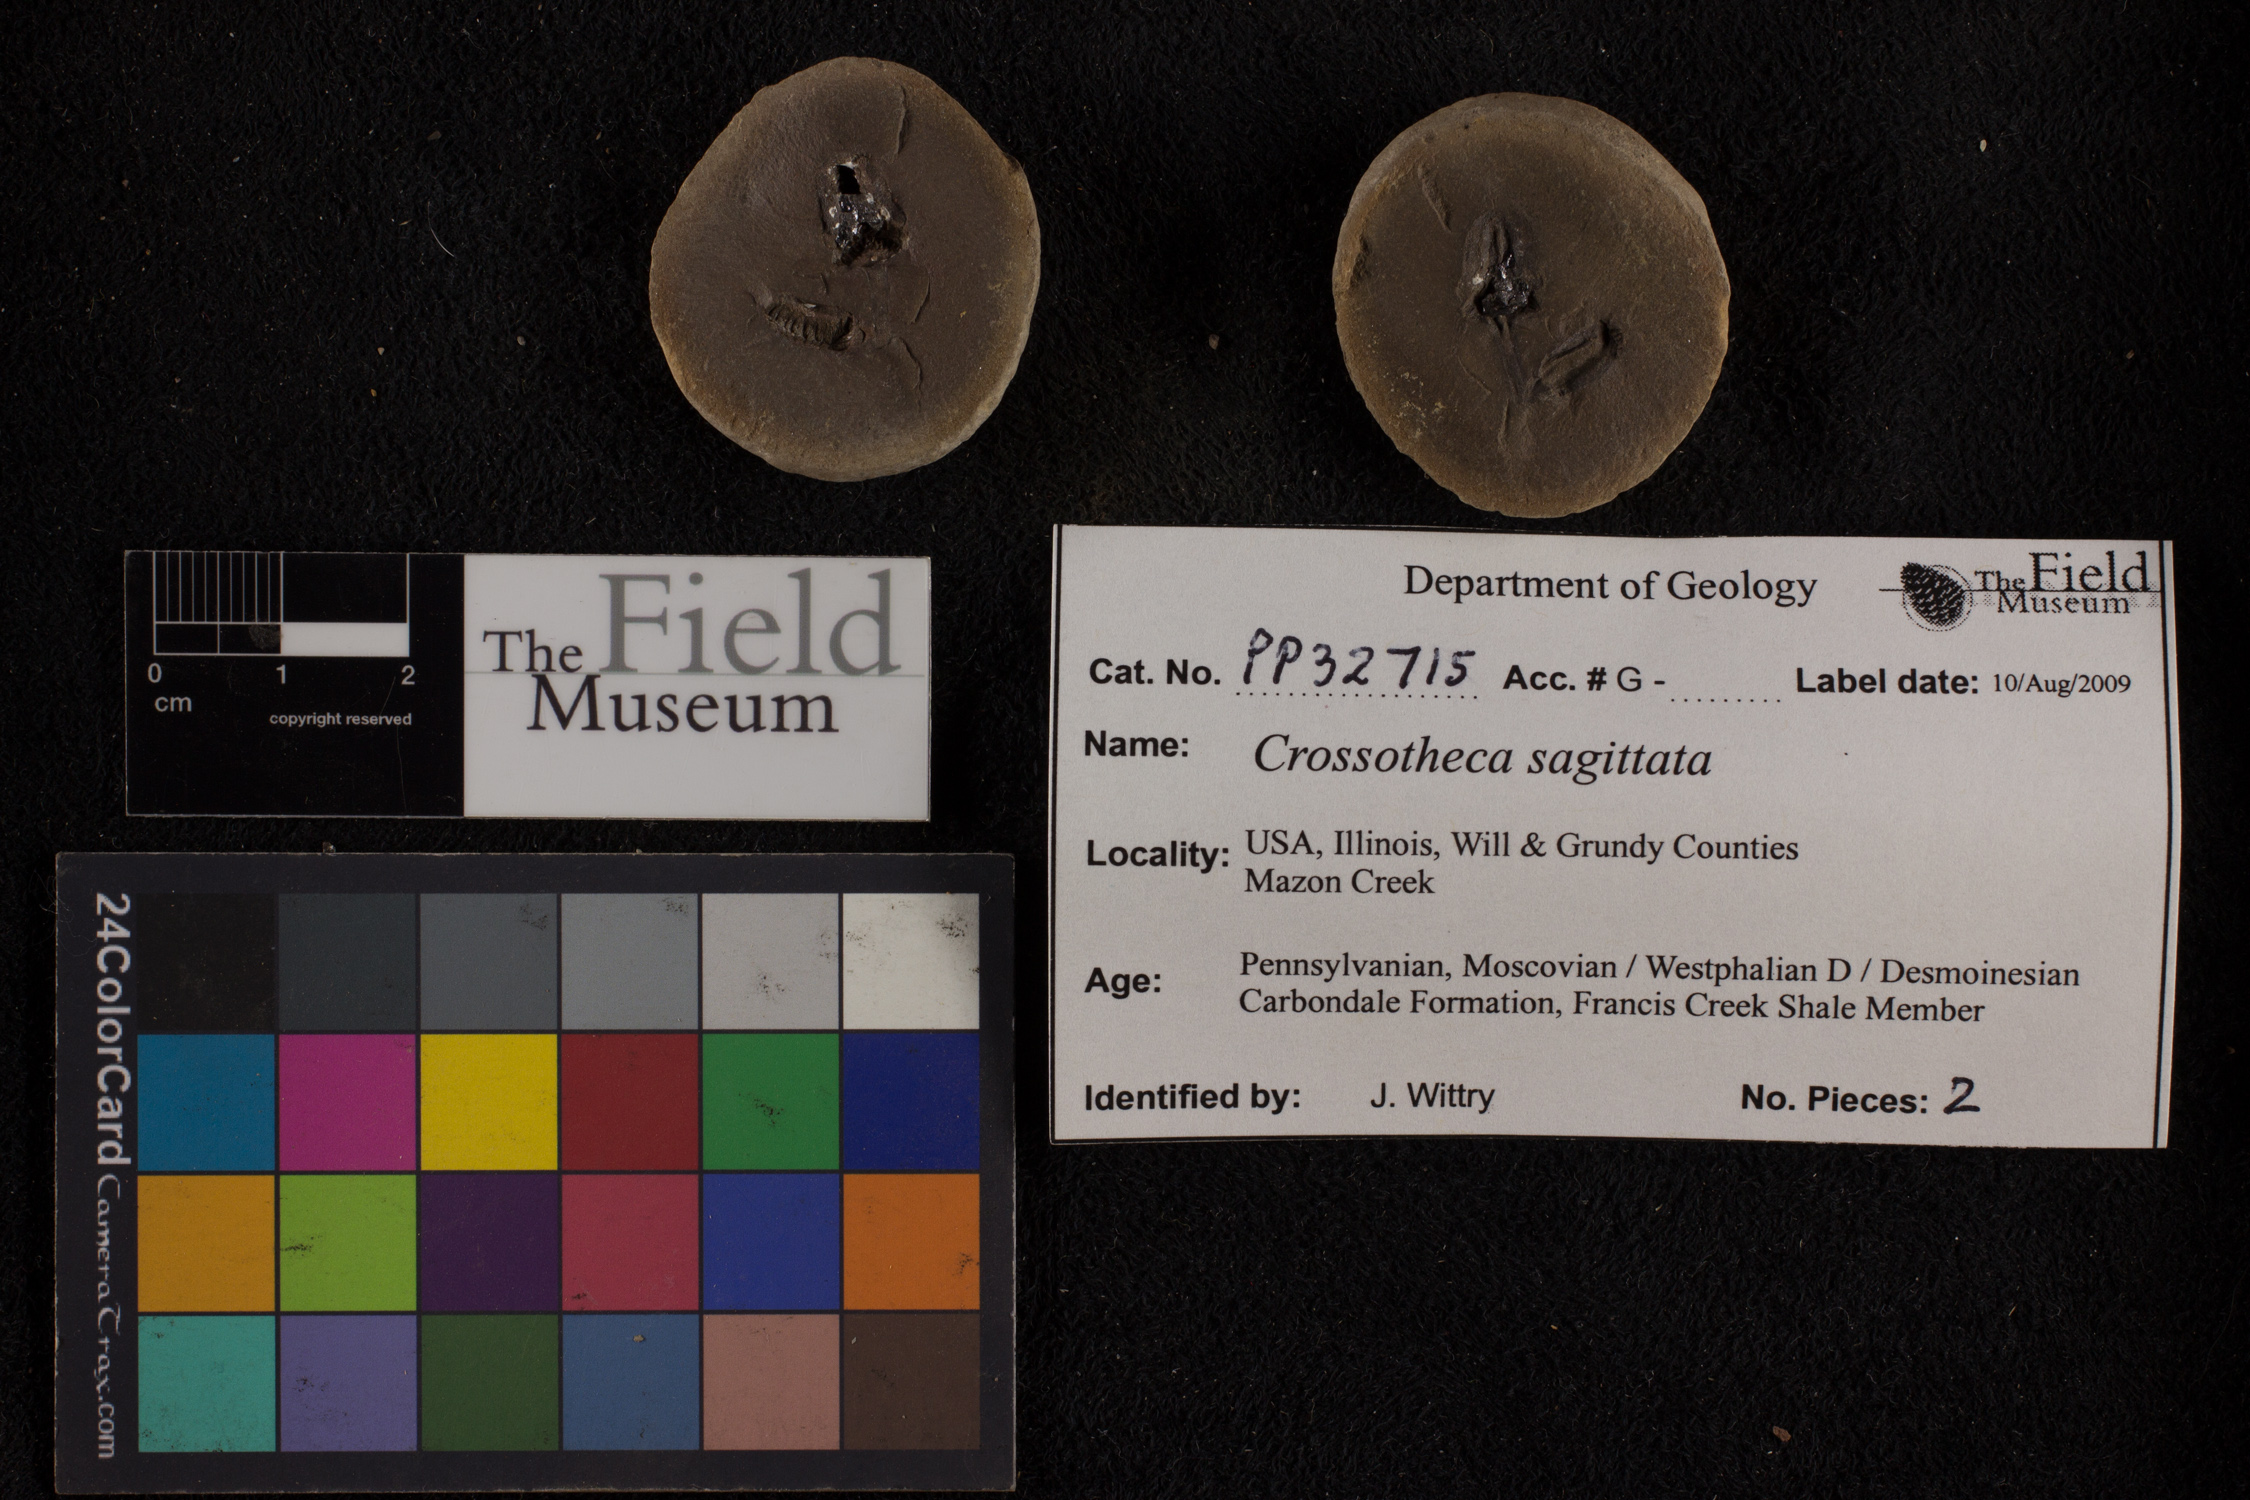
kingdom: Plantae
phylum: Tracheophyta
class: Polypodiopsida
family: Stauropteridaceae
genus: Crossotheca
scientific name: Crossotheca
